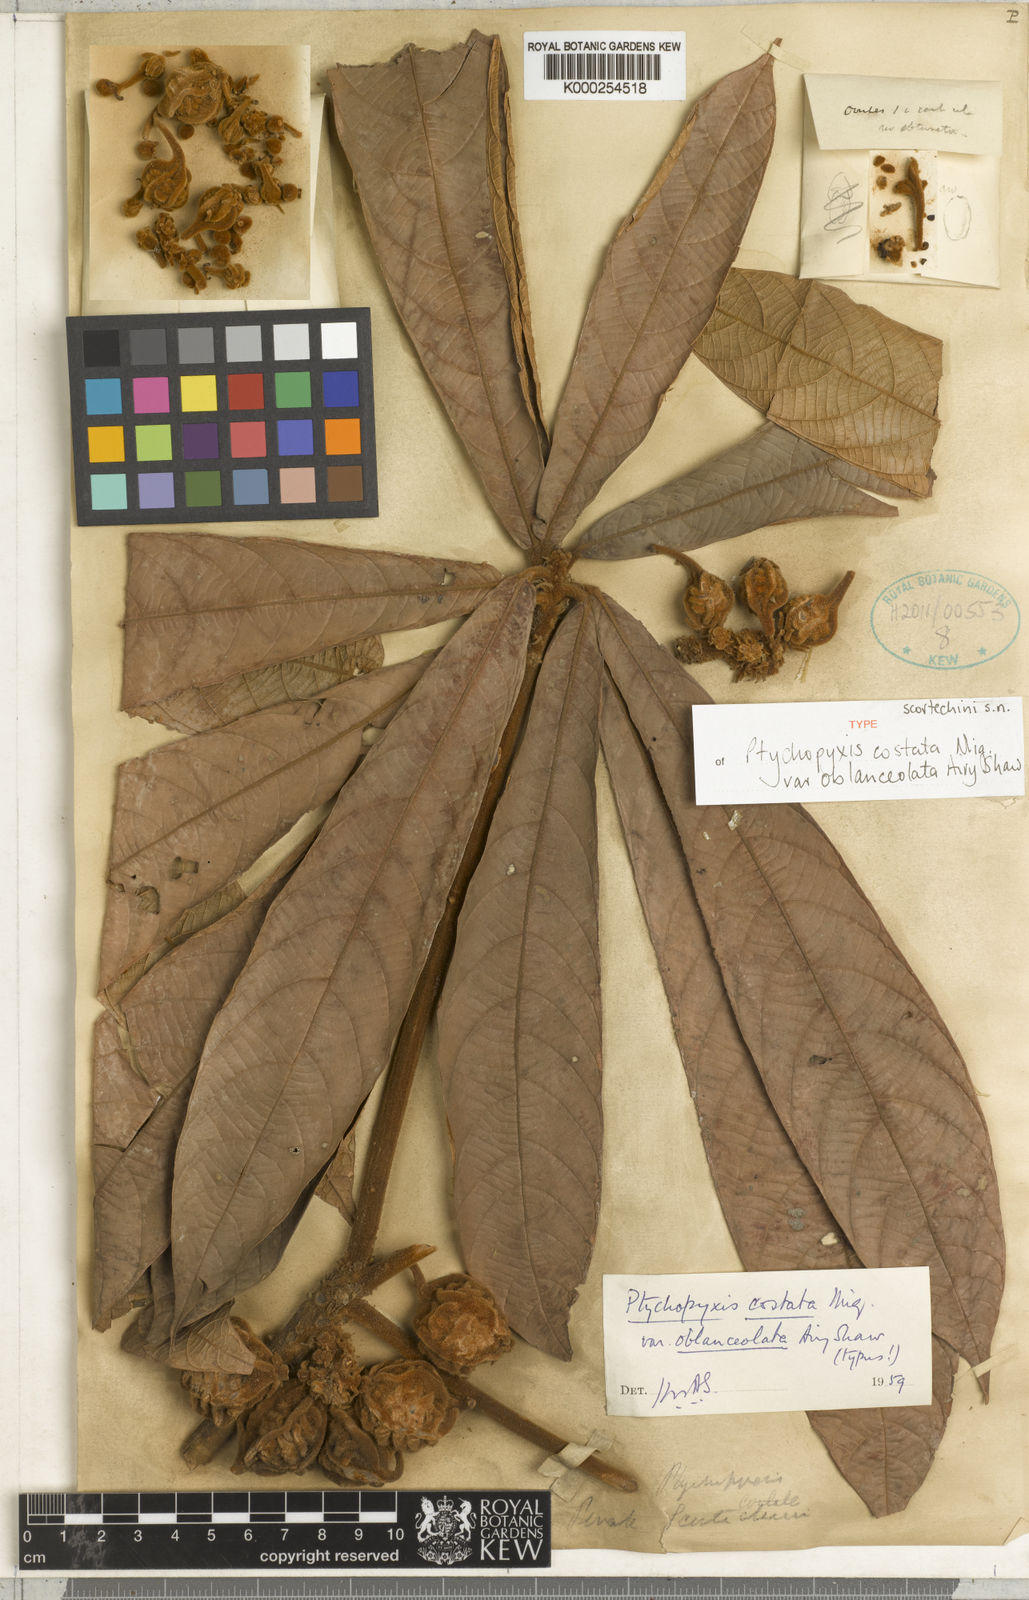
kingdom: Plantae
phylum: Tracheophyta
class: Magnoliopsida
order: Malpighiales
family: Euphorbiaceae
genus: Ptychopyxis
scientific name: Ptychopyxis costata
